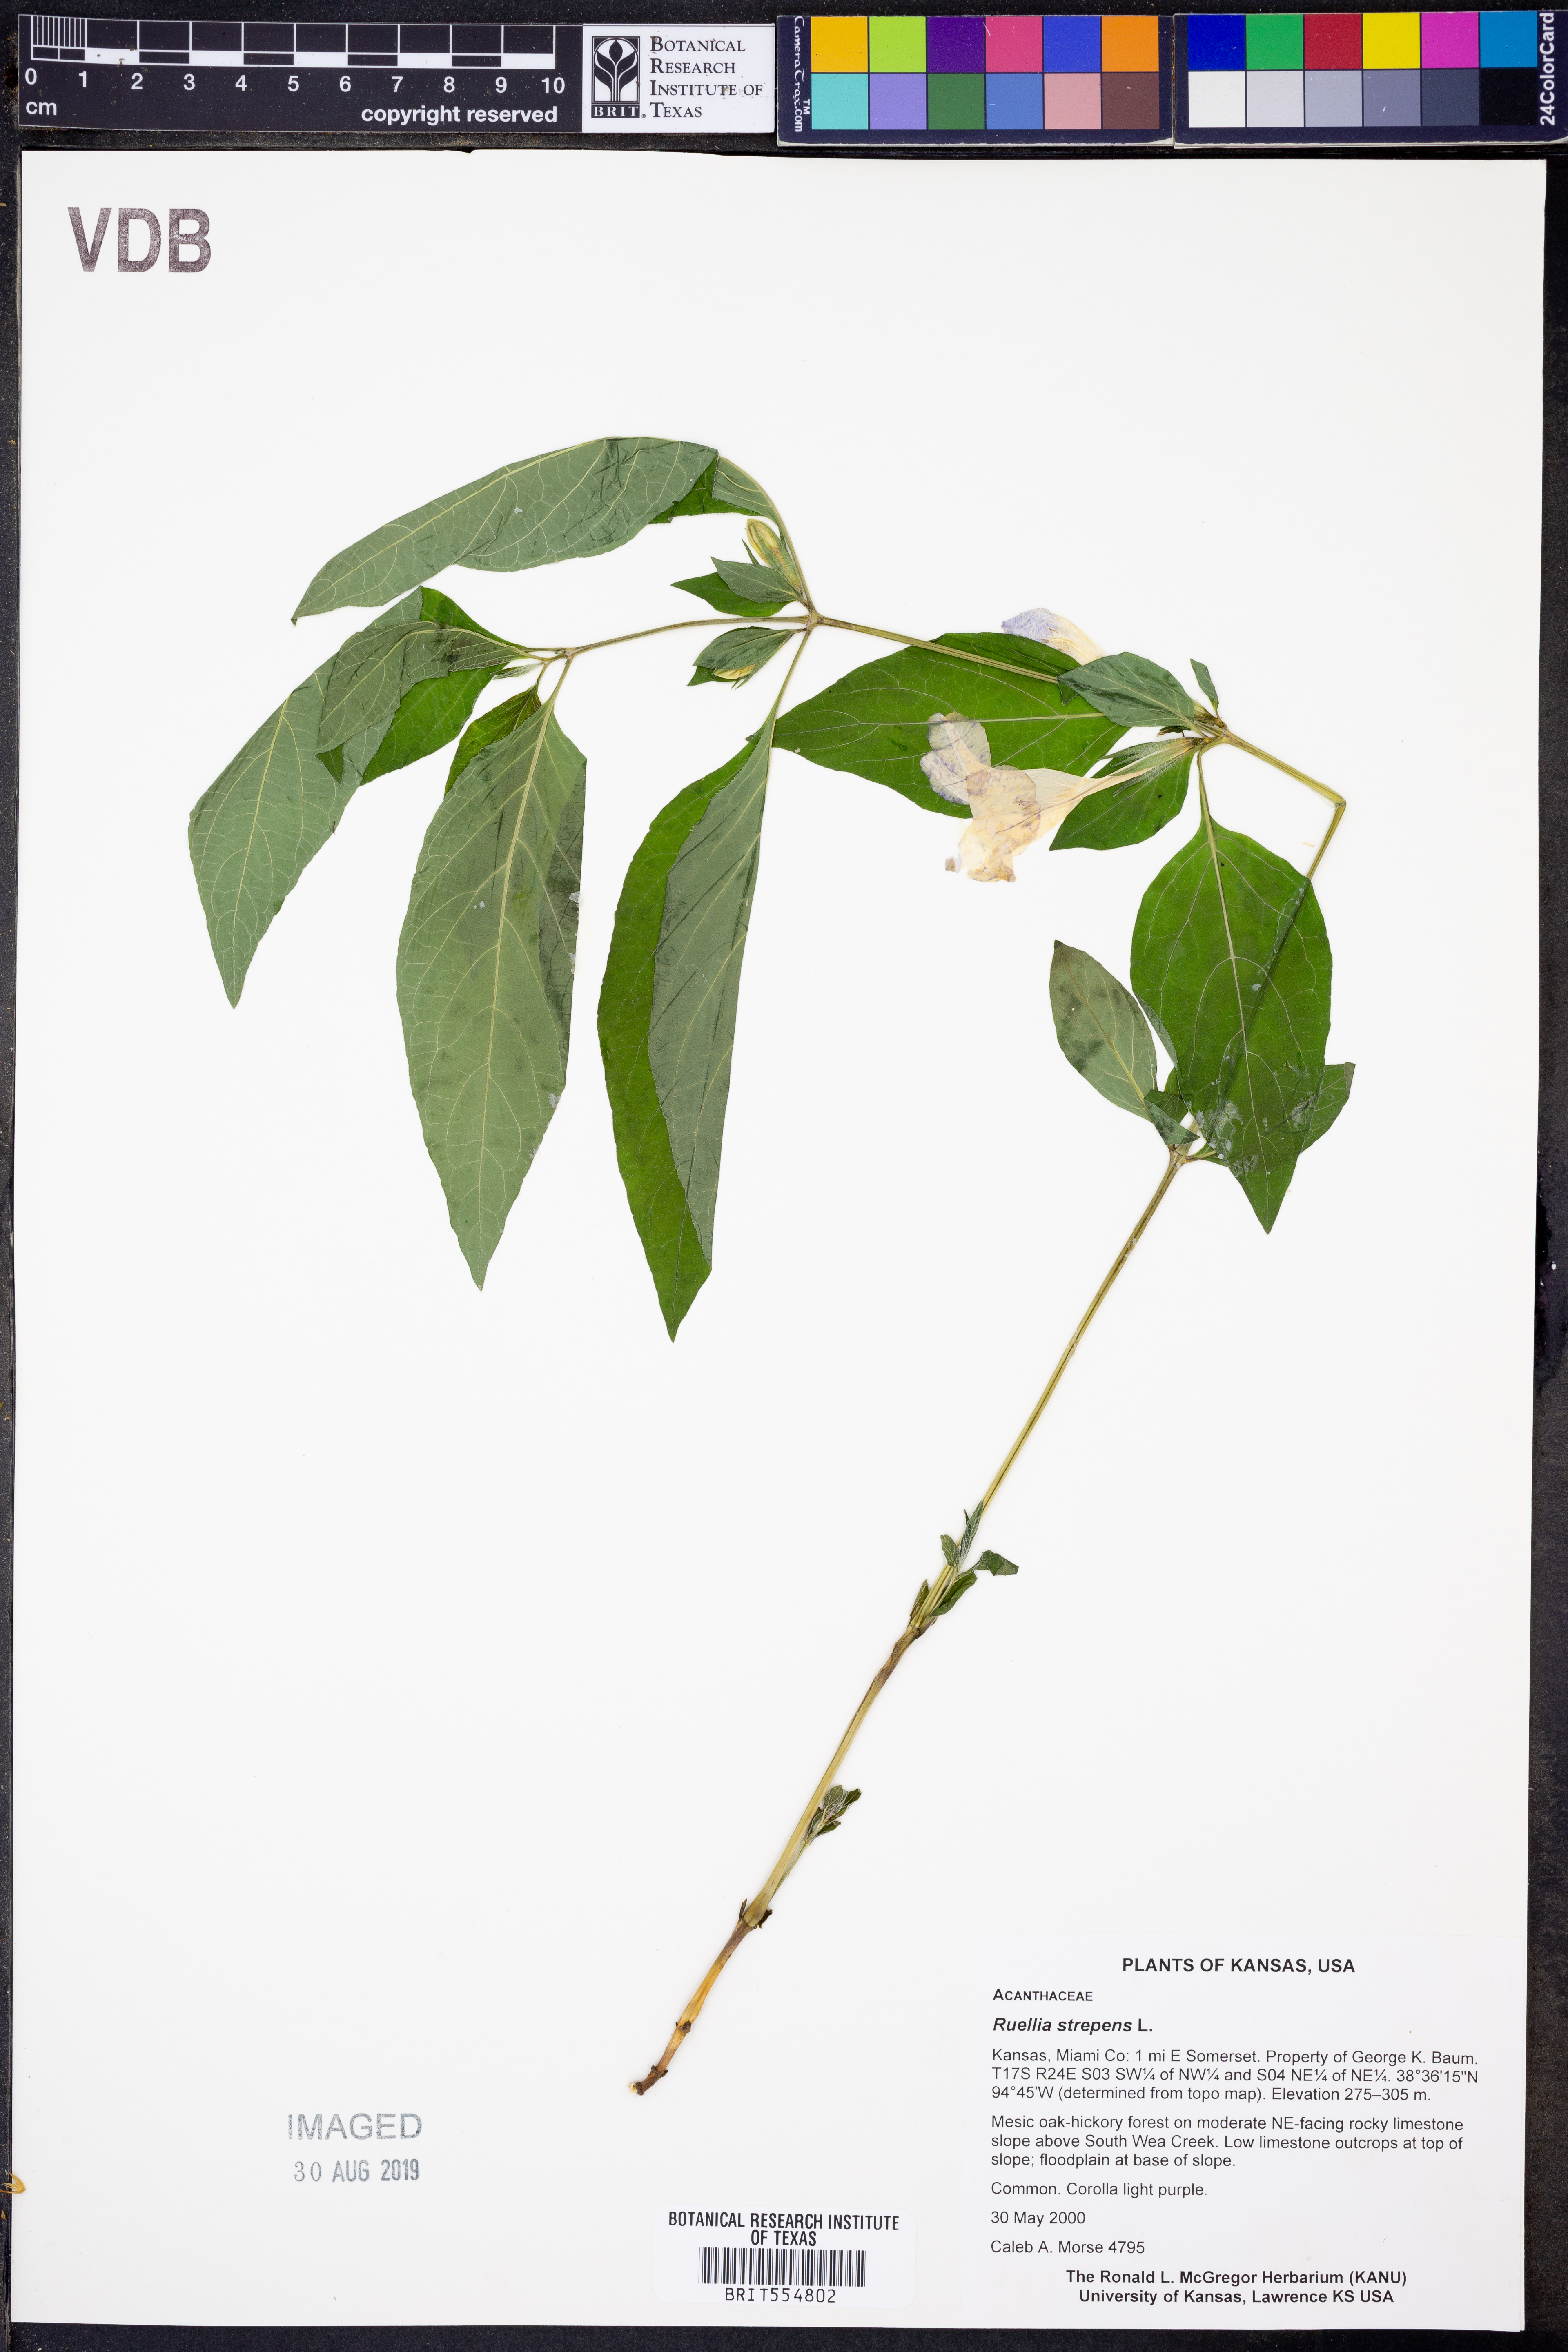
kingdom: Plantae
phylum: Tracheophyta
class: Magnoliopsida
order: Lamiales
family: Acanthaceae
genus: Ruellia
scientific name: Ruellia strepens
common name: Limestone wild petunia
